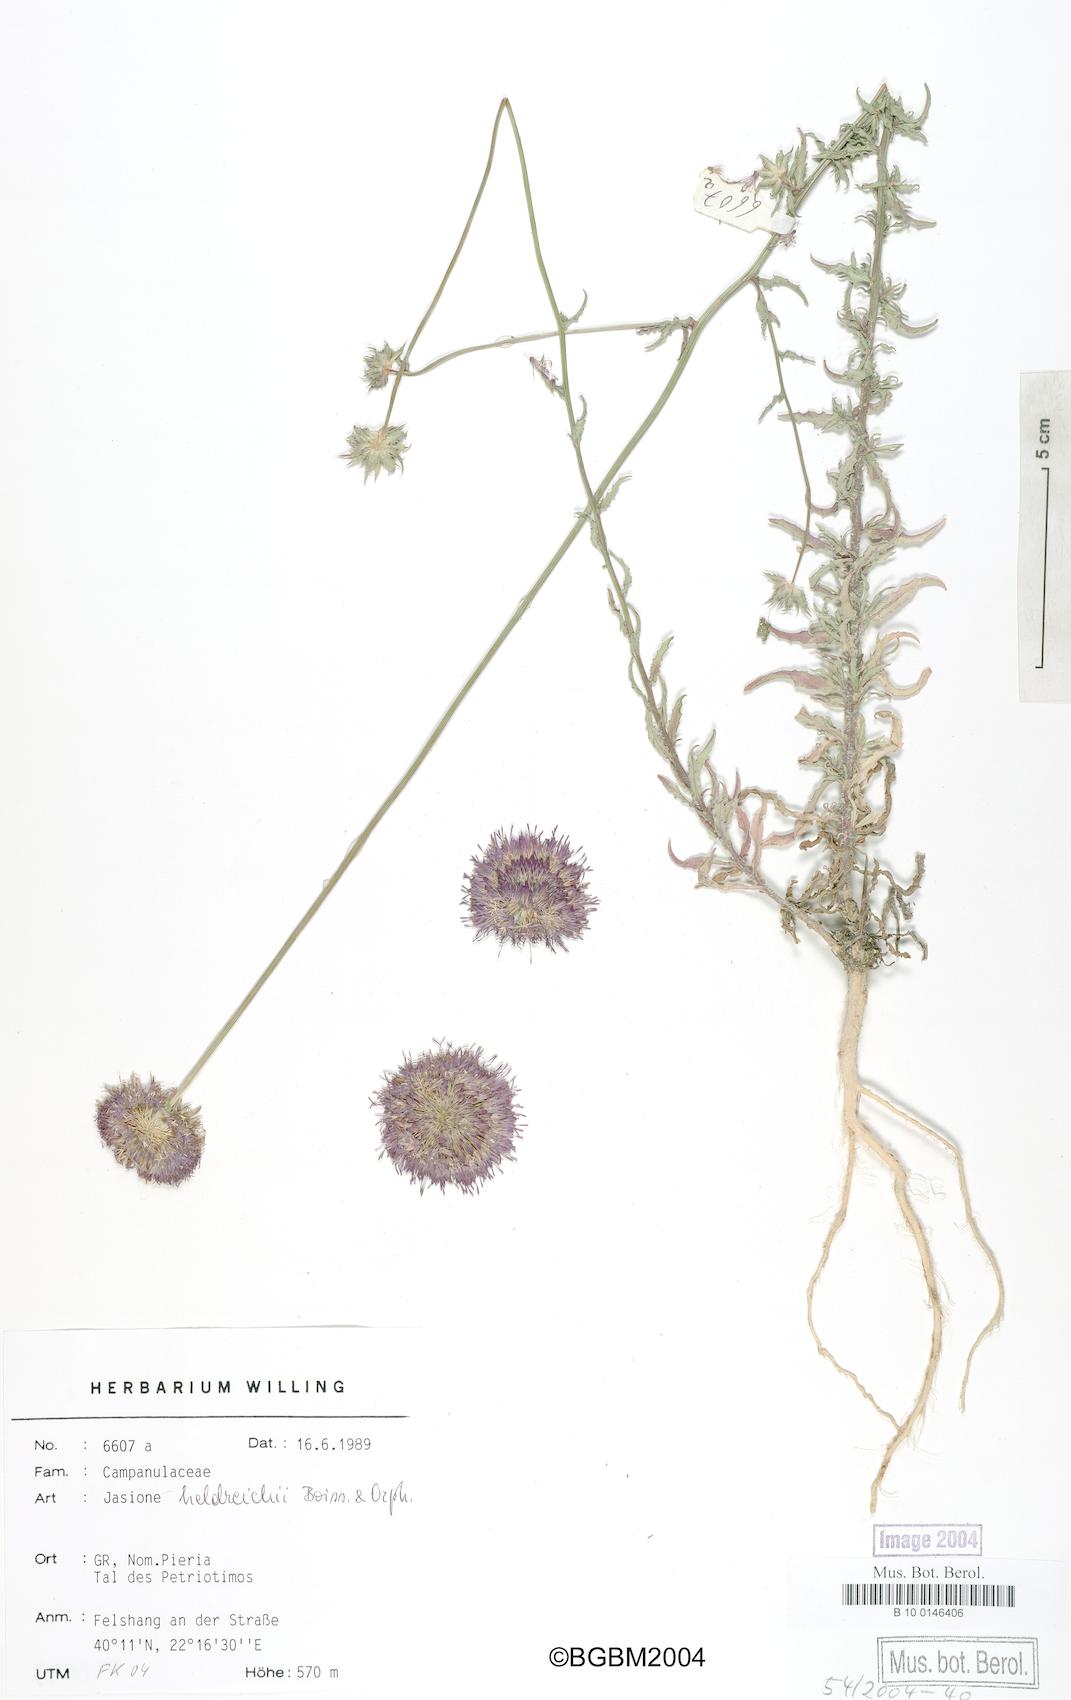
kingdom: Plantae
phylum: Tracheophyta
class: Magnoliopsida
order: Asterales
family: Campanulaceae
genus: Jasione
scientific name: Jasione heldreichii
